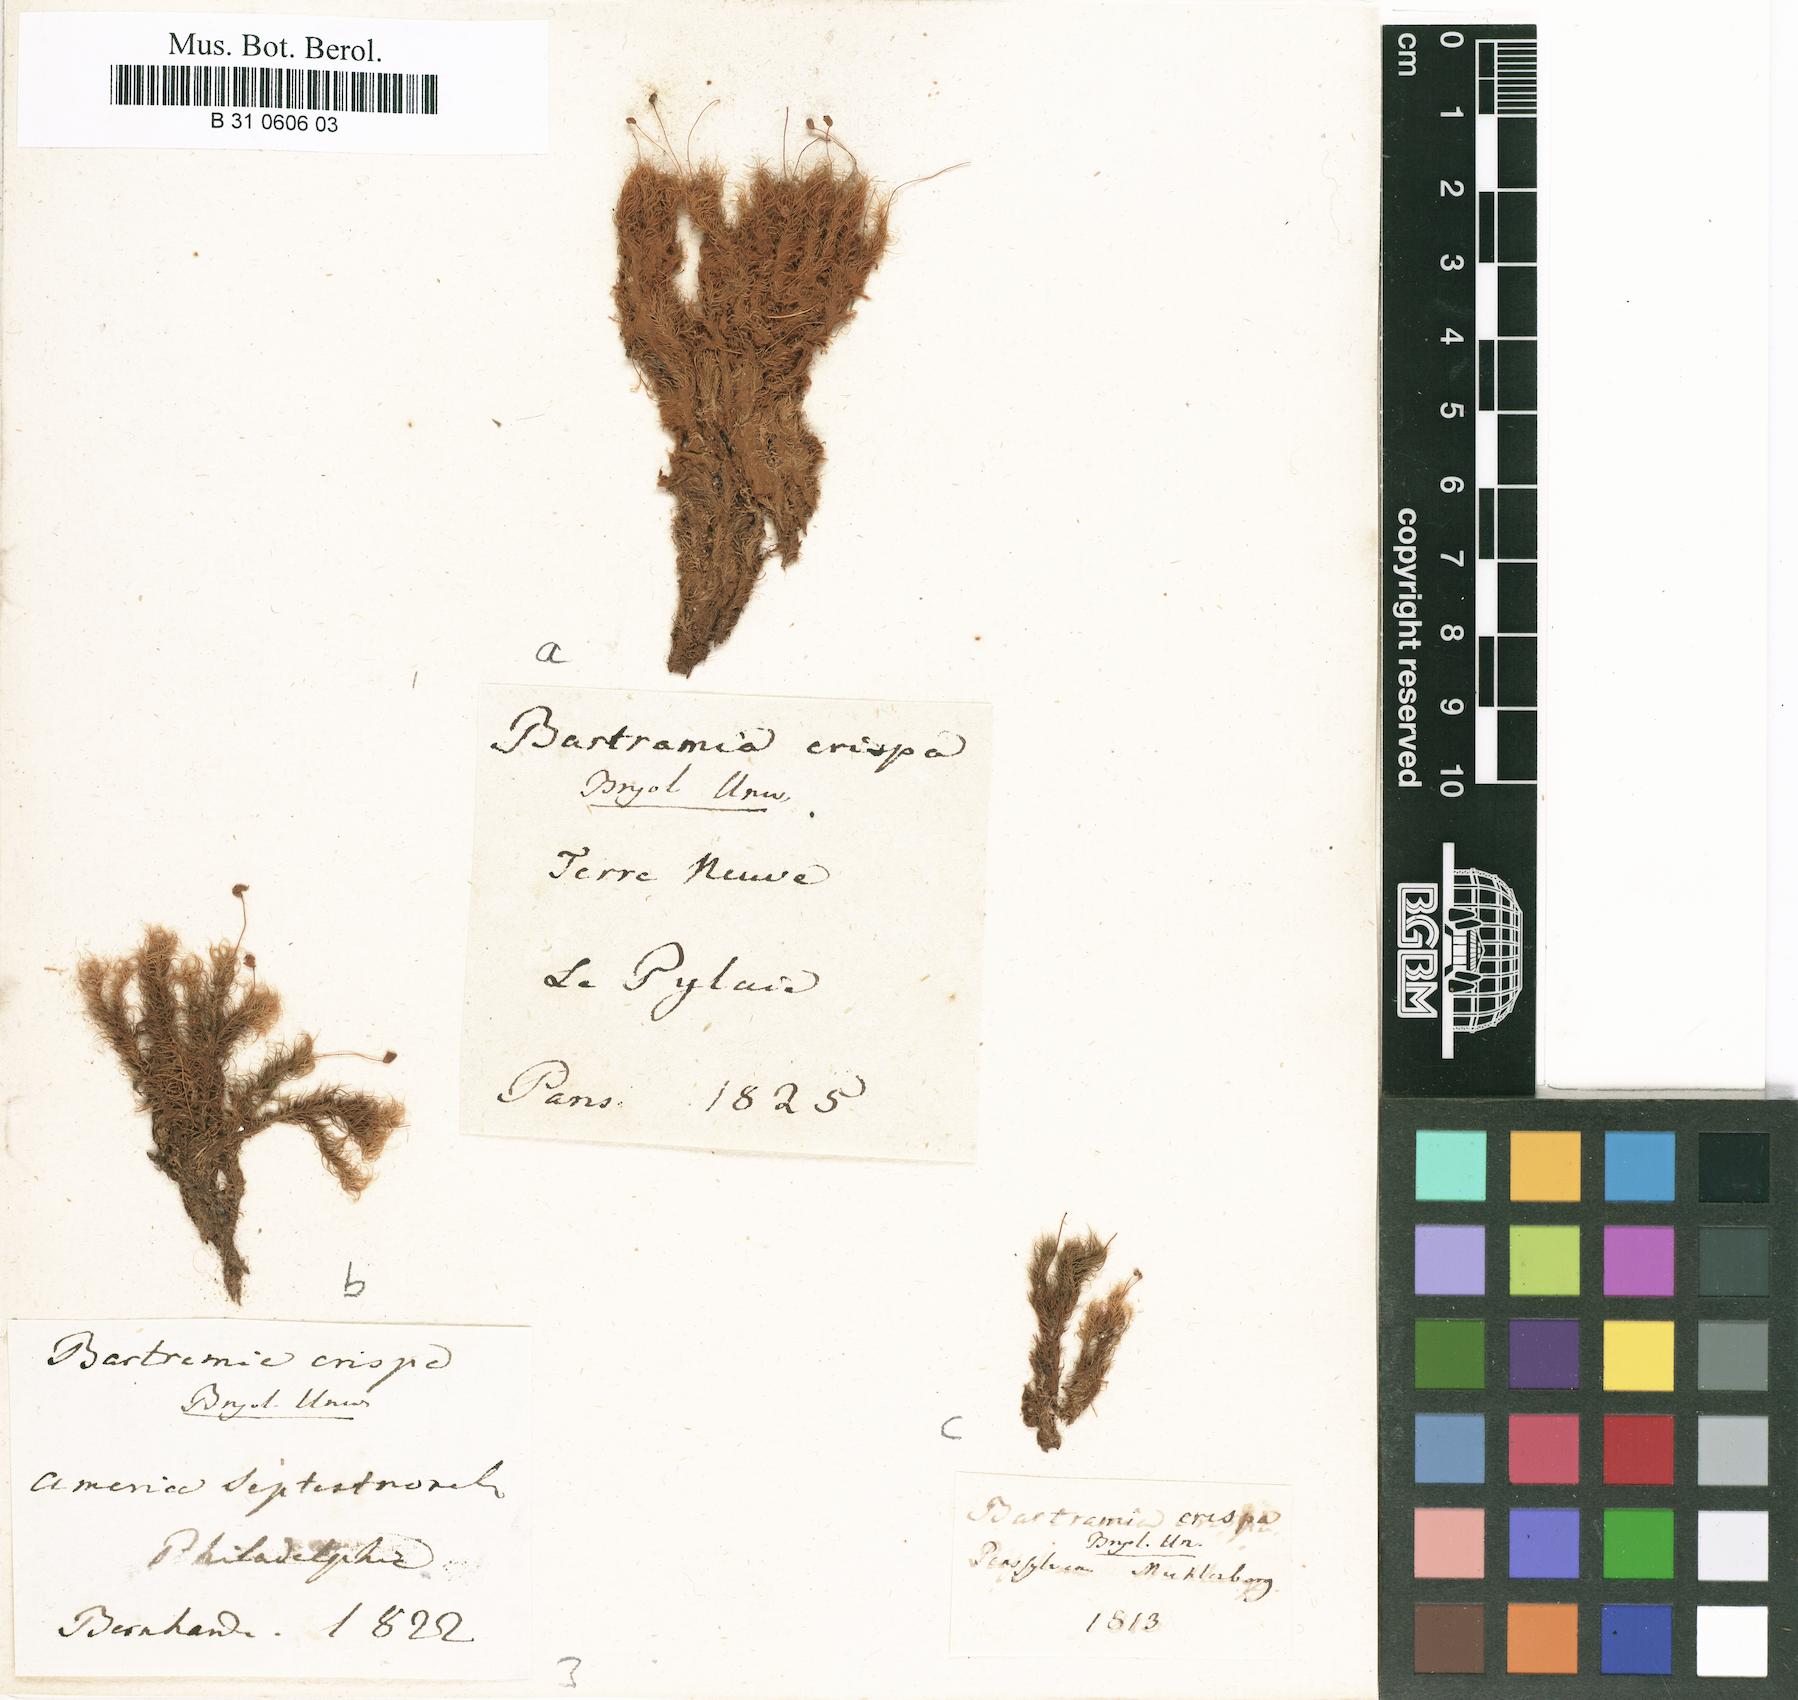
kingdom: Plantae
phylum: Bryophyta
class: Bryopsida
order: Bartramiales
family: Bartramiaceae
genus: Bartramia
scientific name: Bartramia pomiformis
